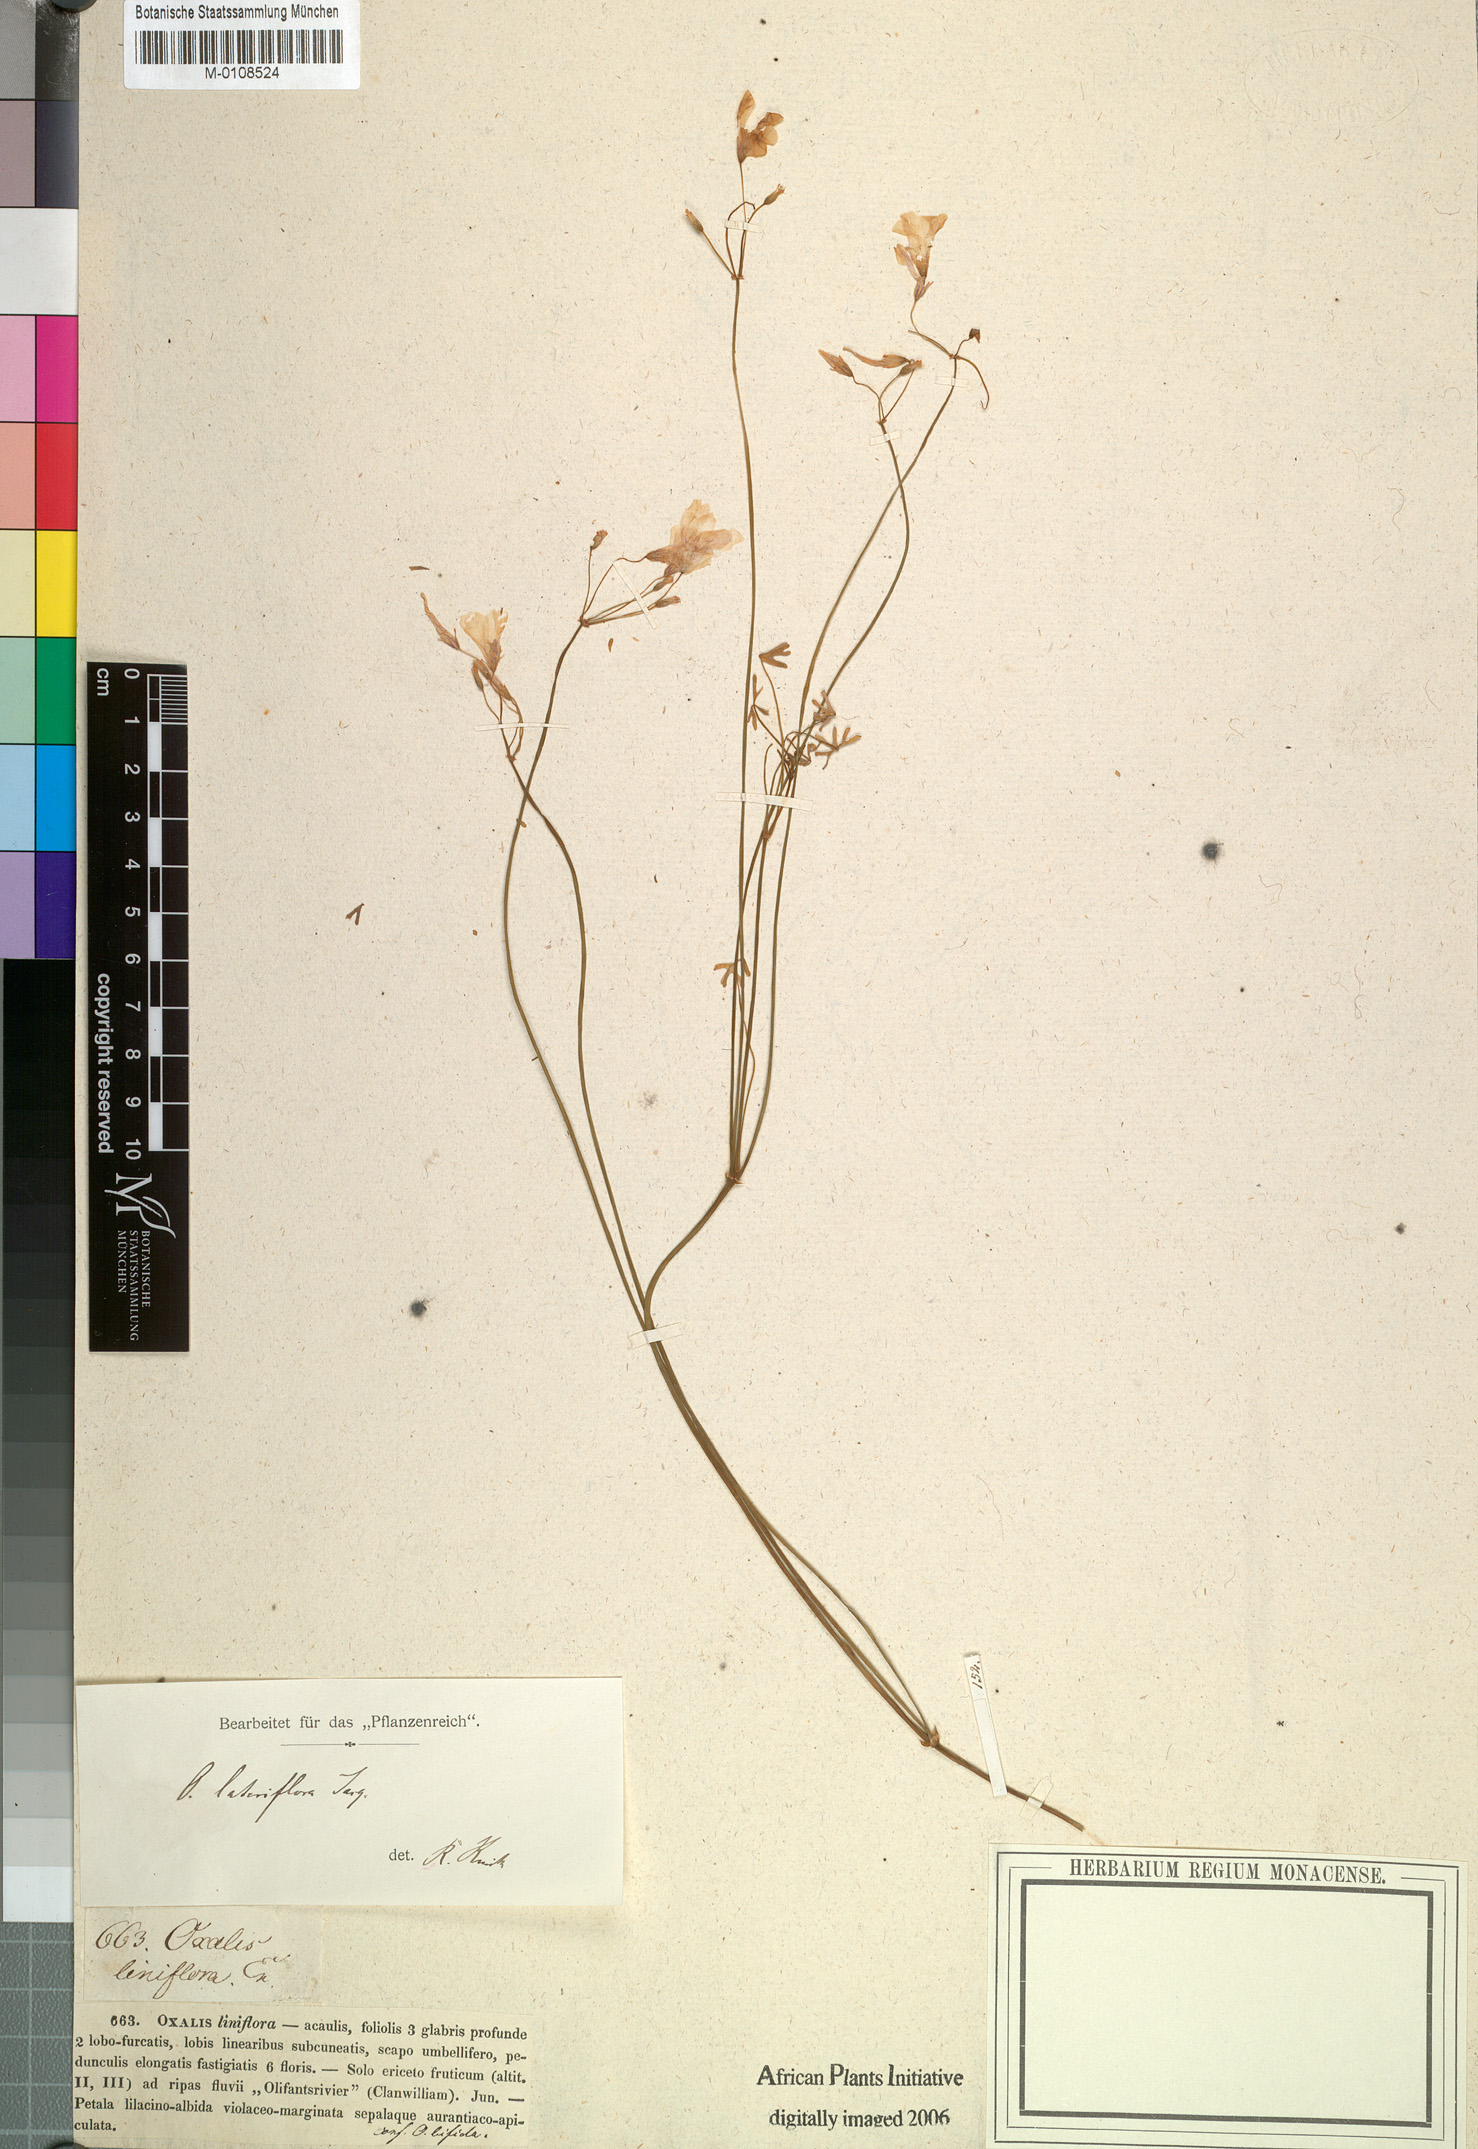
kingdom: Plantae
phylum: Tracheophyta
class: Magnoliopsida
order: Oxalidales
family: Oxalidaceae
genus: Oxalis
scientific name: Oxalis livida
